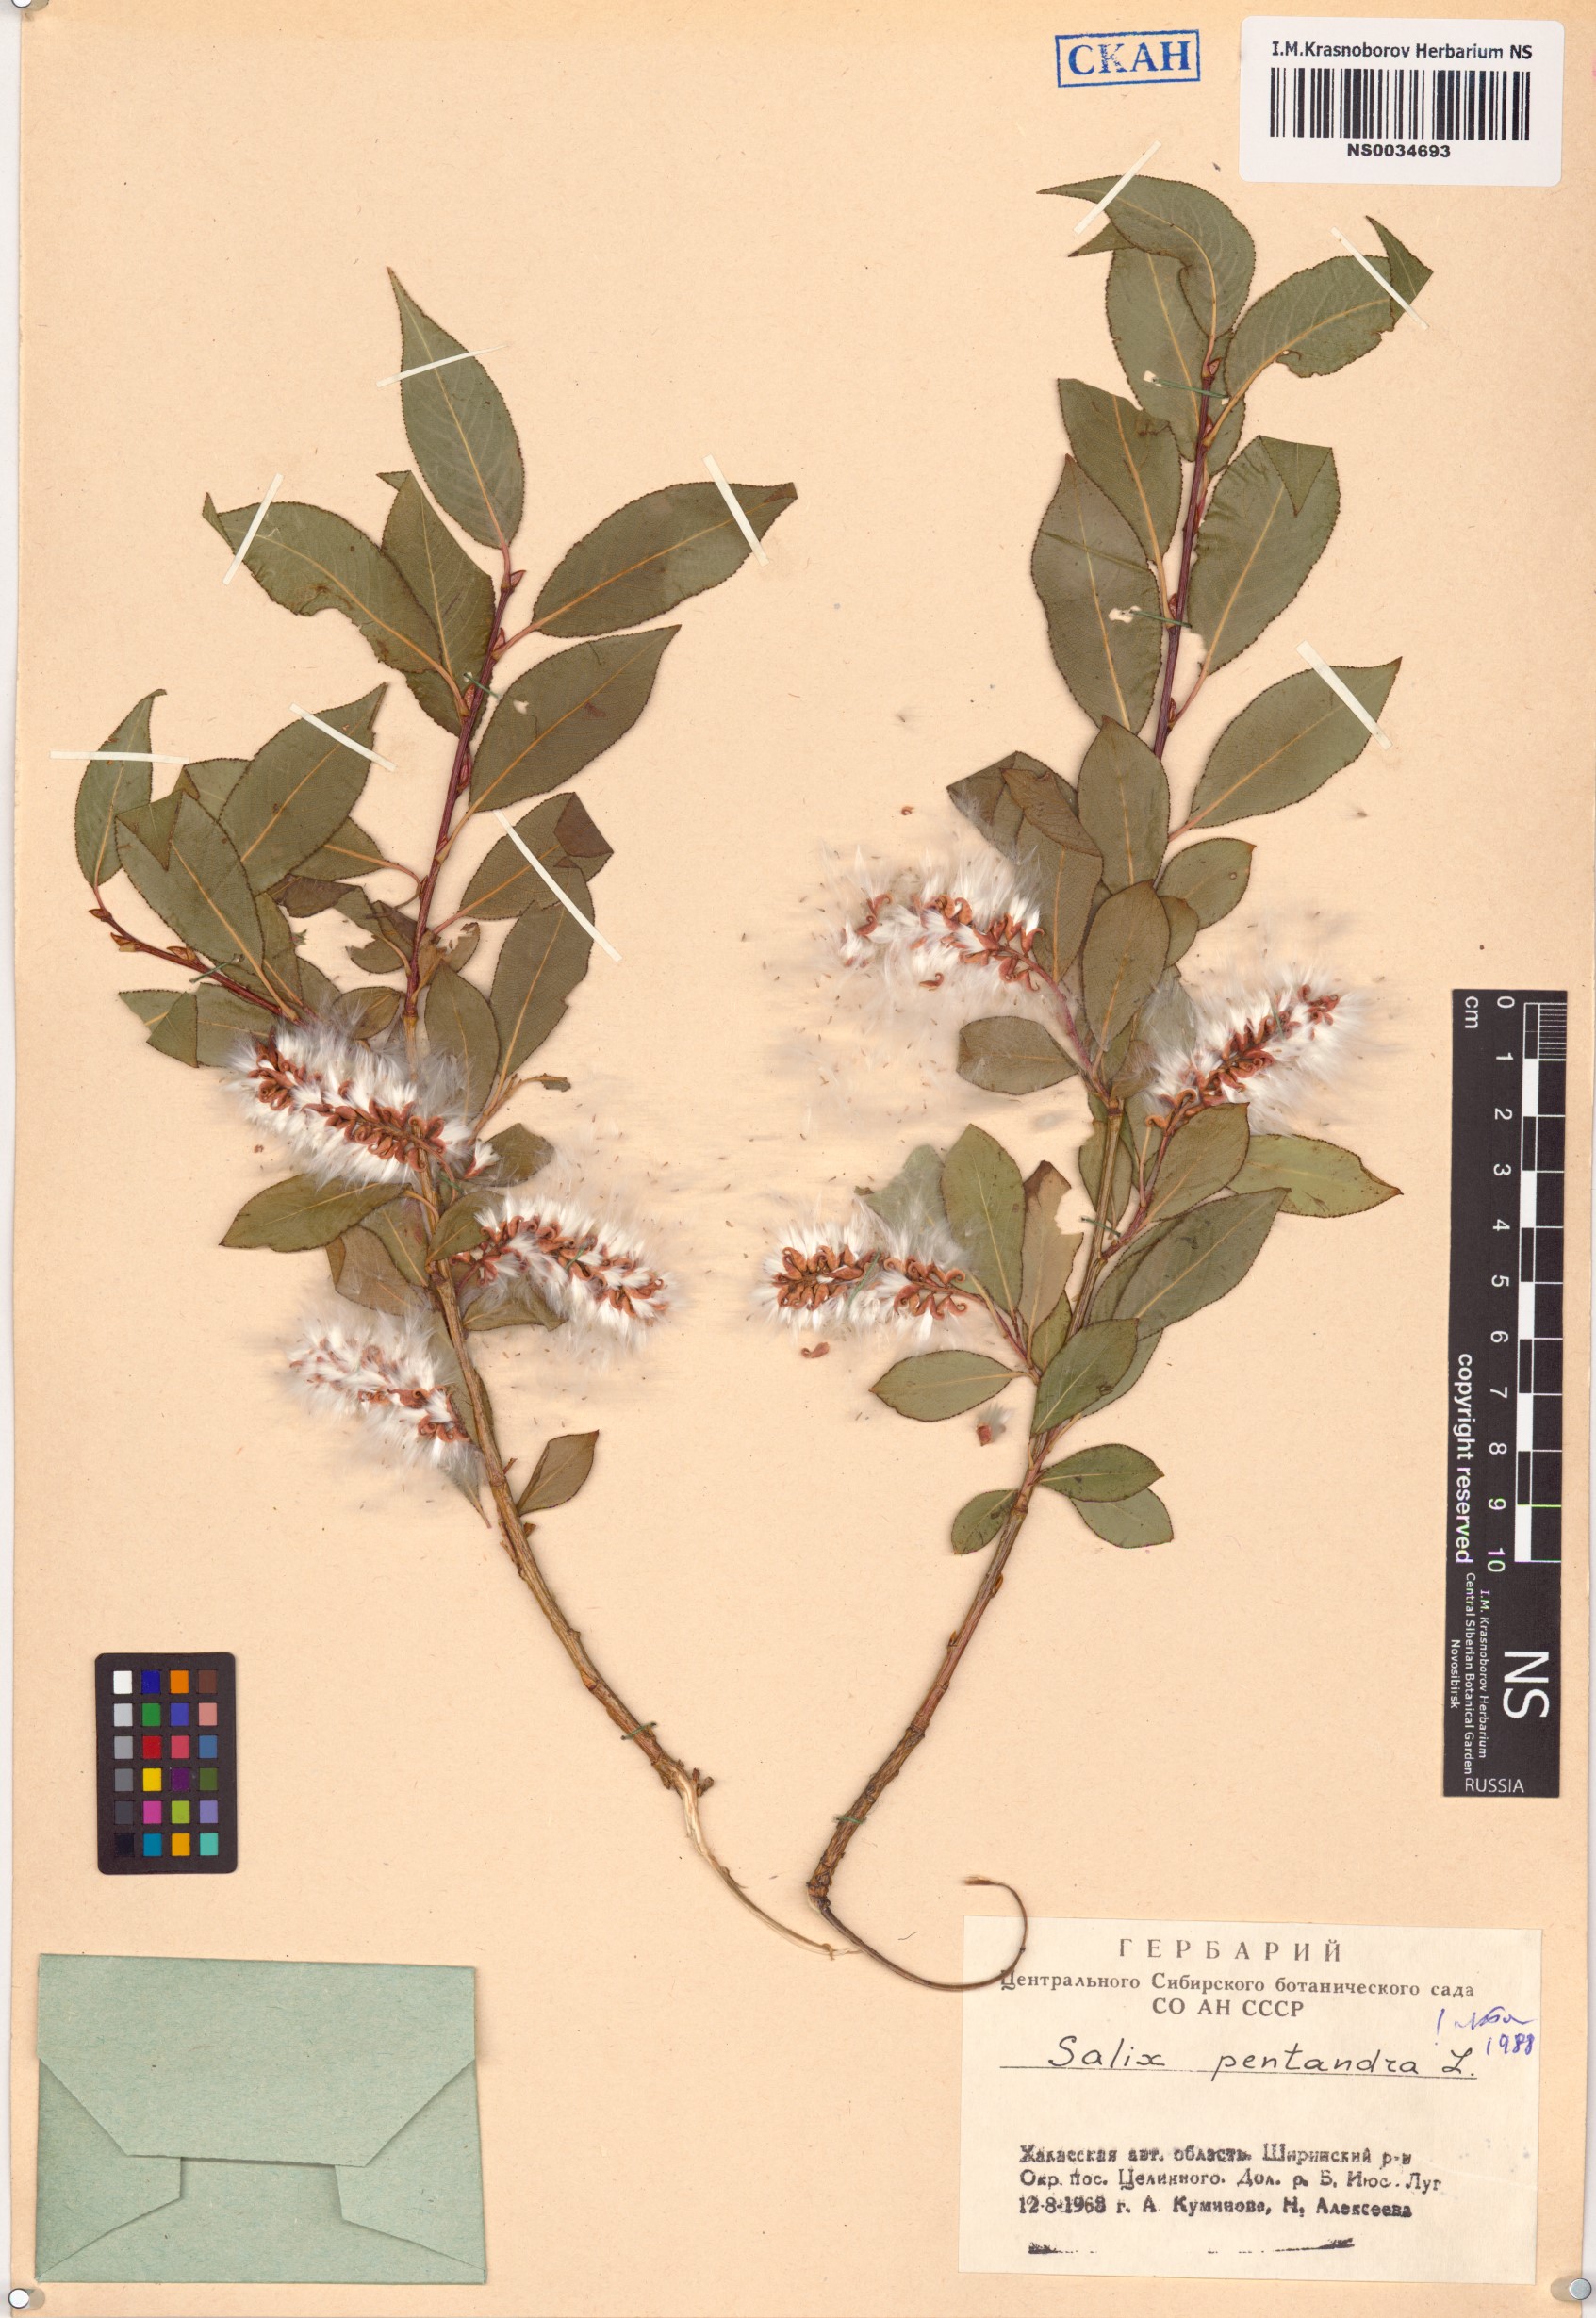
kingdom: Plantae
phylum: Tracheophyta
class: Magnoliopsida
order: Malpighiales
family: Salicaceae
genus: Salix
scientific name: Salix pentandra
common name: Bay willow
